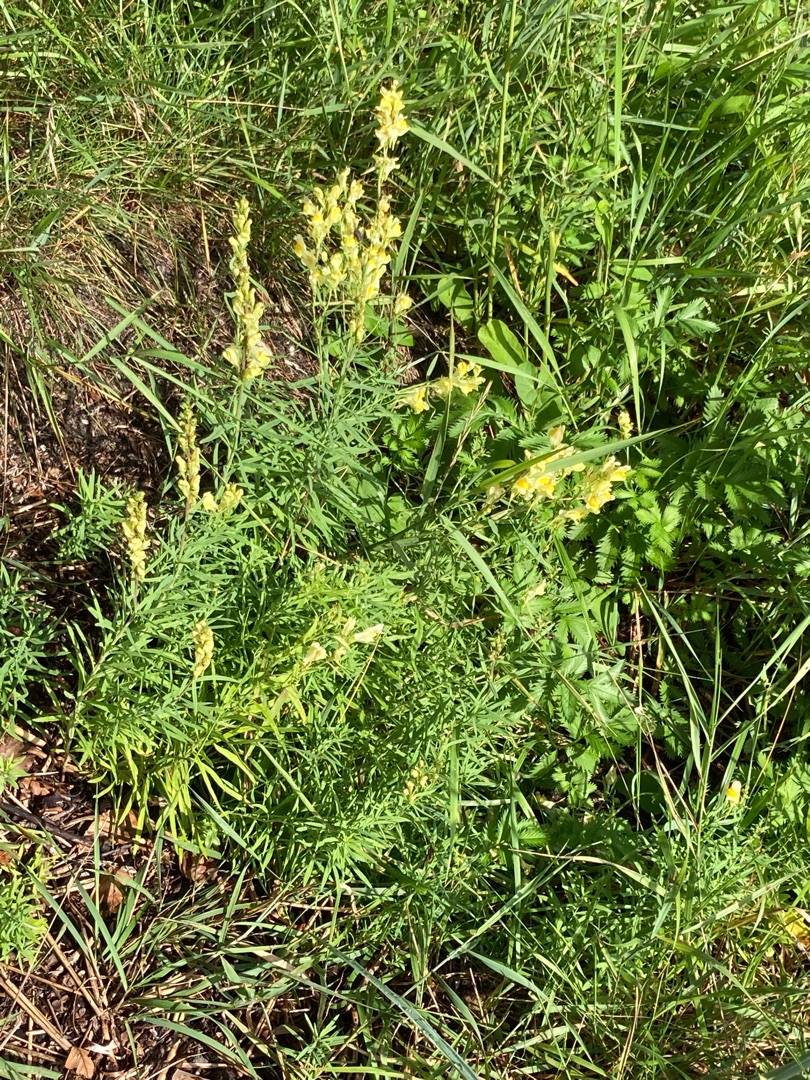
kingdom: Plantae
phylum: Tracheophyta
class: Magnoliopsida
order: Lamiales
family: Plantaginaceae
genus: Linaria
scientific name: Linaria vulgaris
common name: Almindelig torskemund
